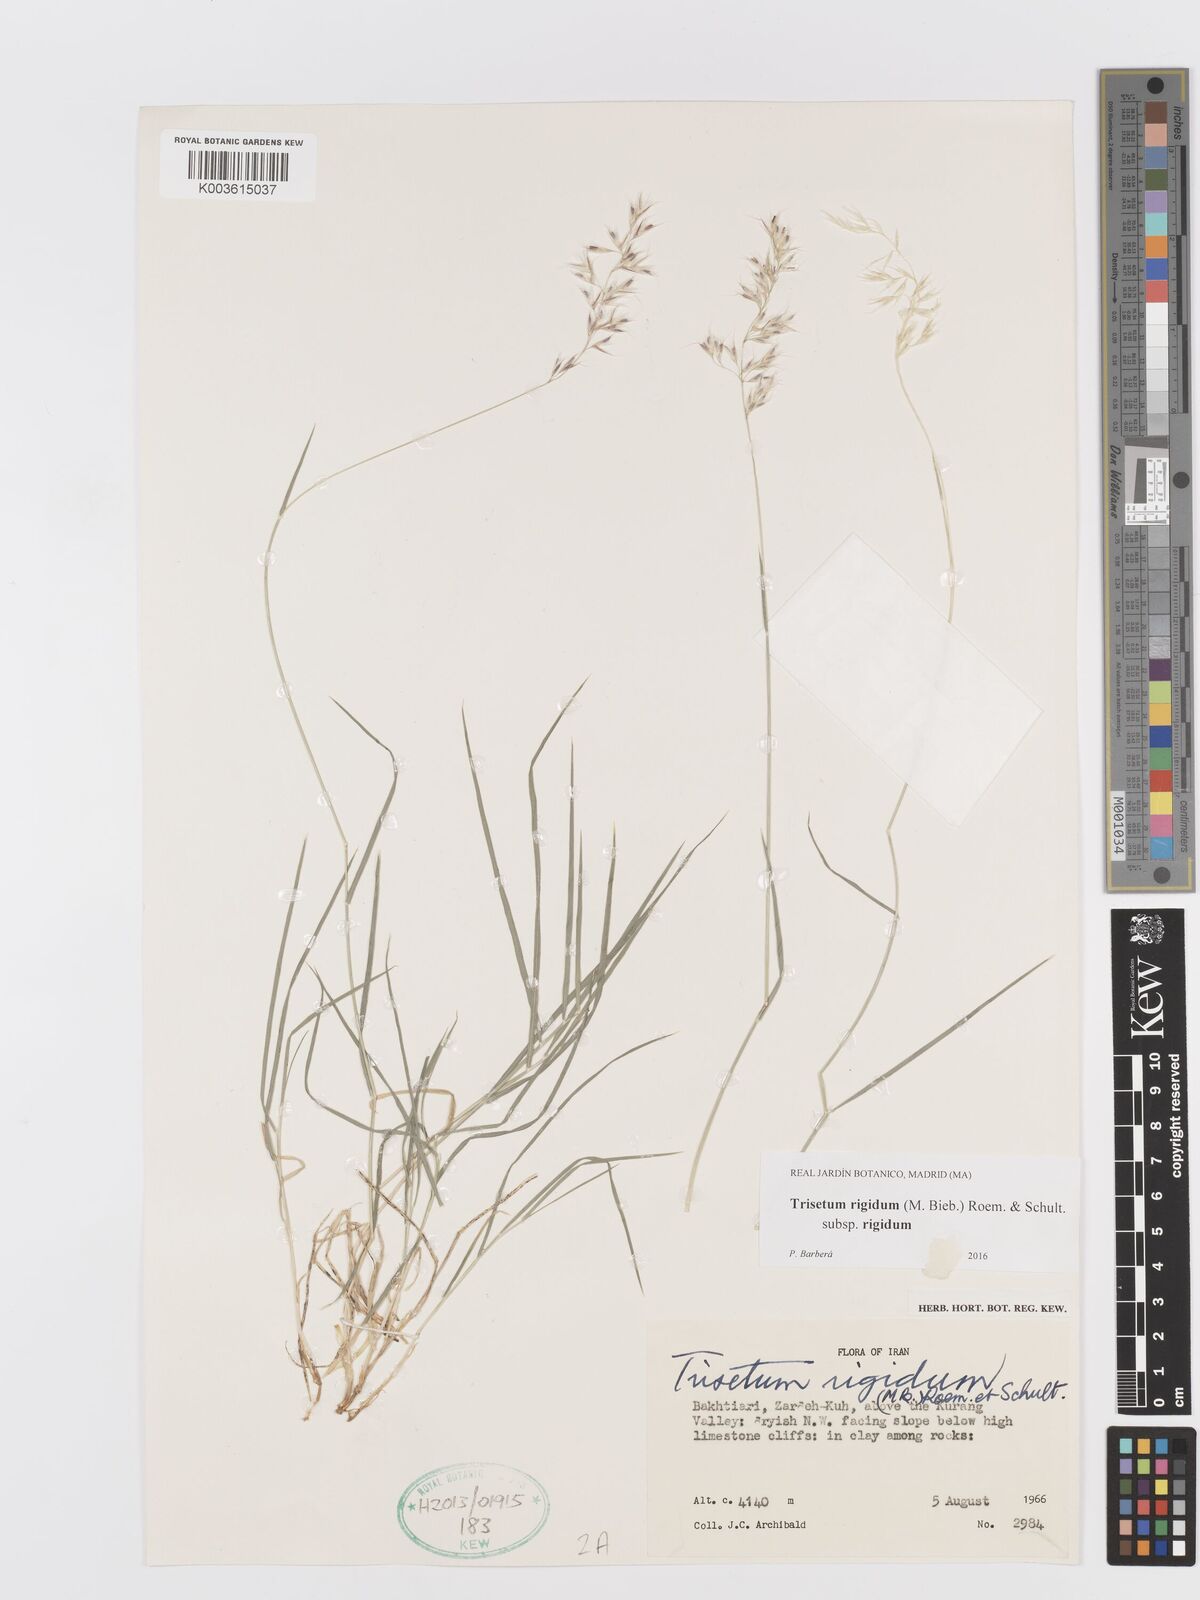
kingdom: Plantae
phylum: Tracheophyta
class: Liliopsida
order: Poales
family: Poaceae
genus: Trisetum
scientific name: Trisetum rigidum
